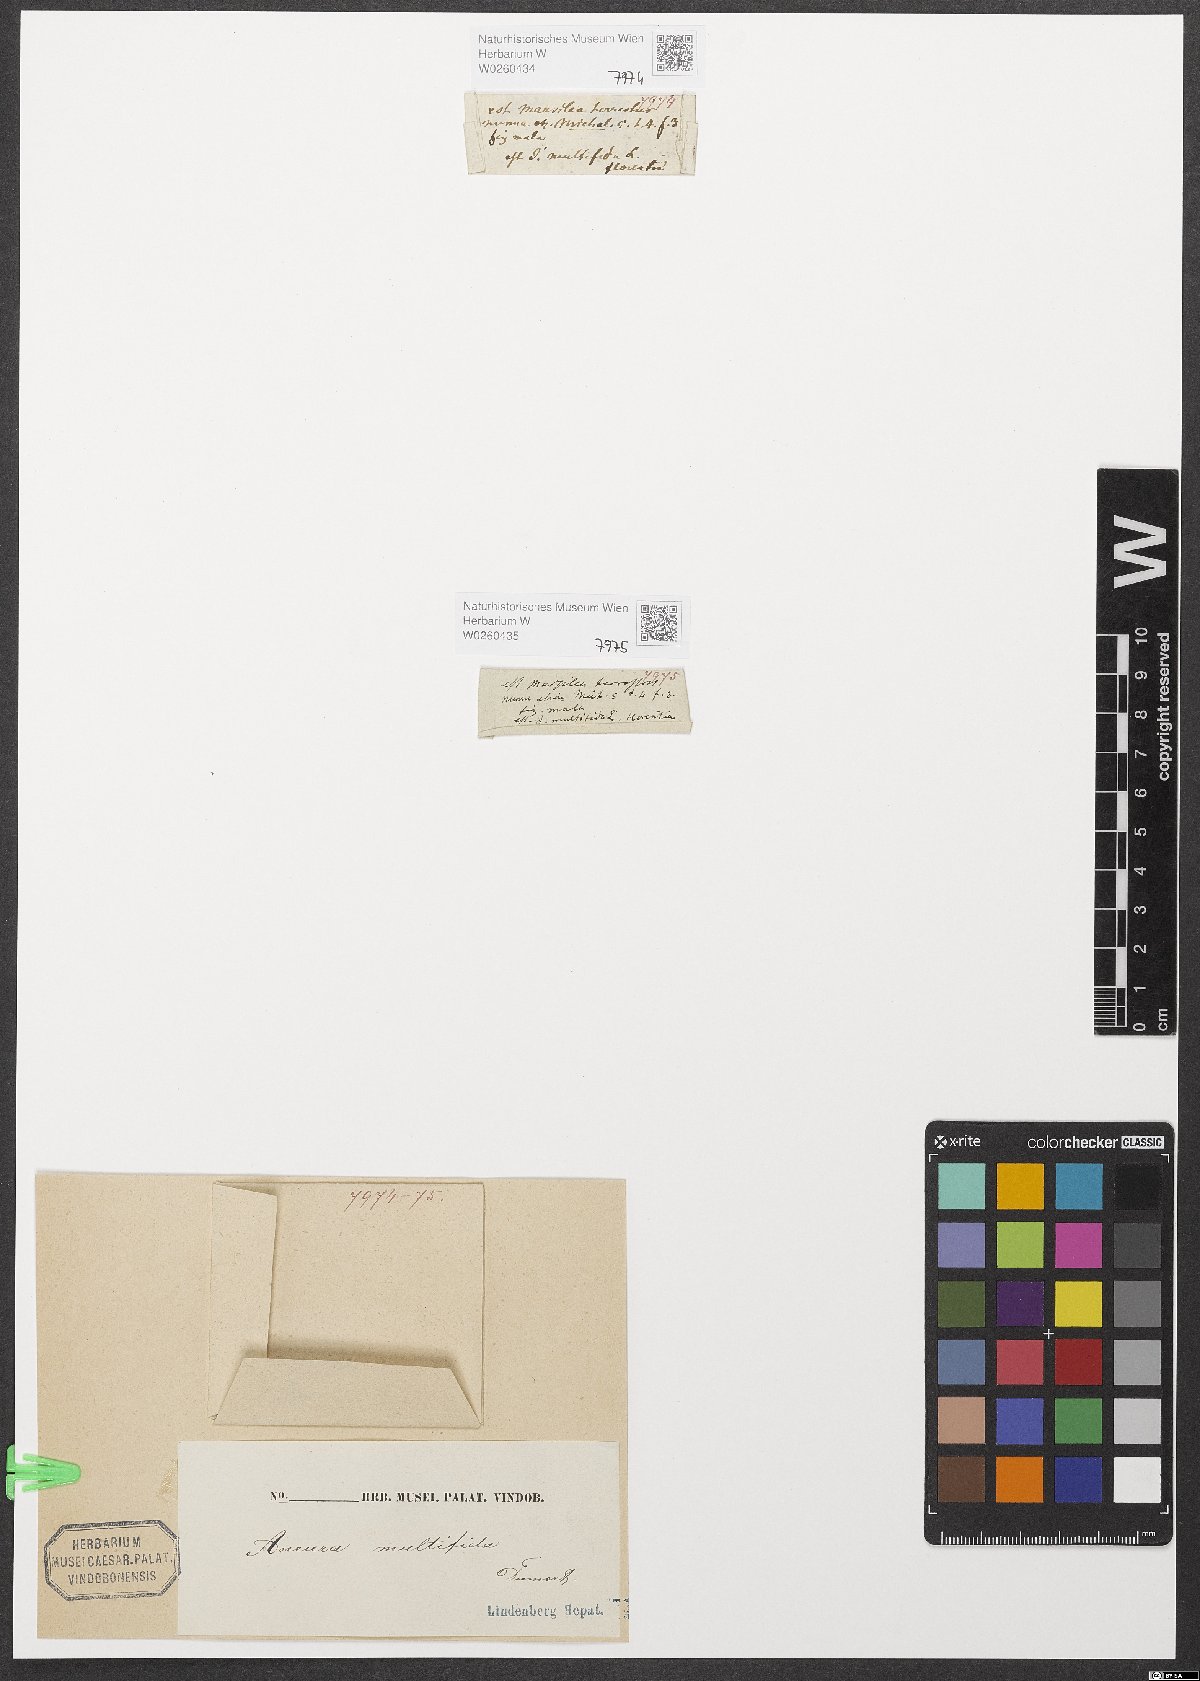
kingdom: Plantae
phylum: Marchantiophyta
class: Jungermanniopsida
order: Metzgeriales
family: Aneuraceae
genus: Riccardia
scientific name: Riccardia multifida
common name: Delicate germanderwort
